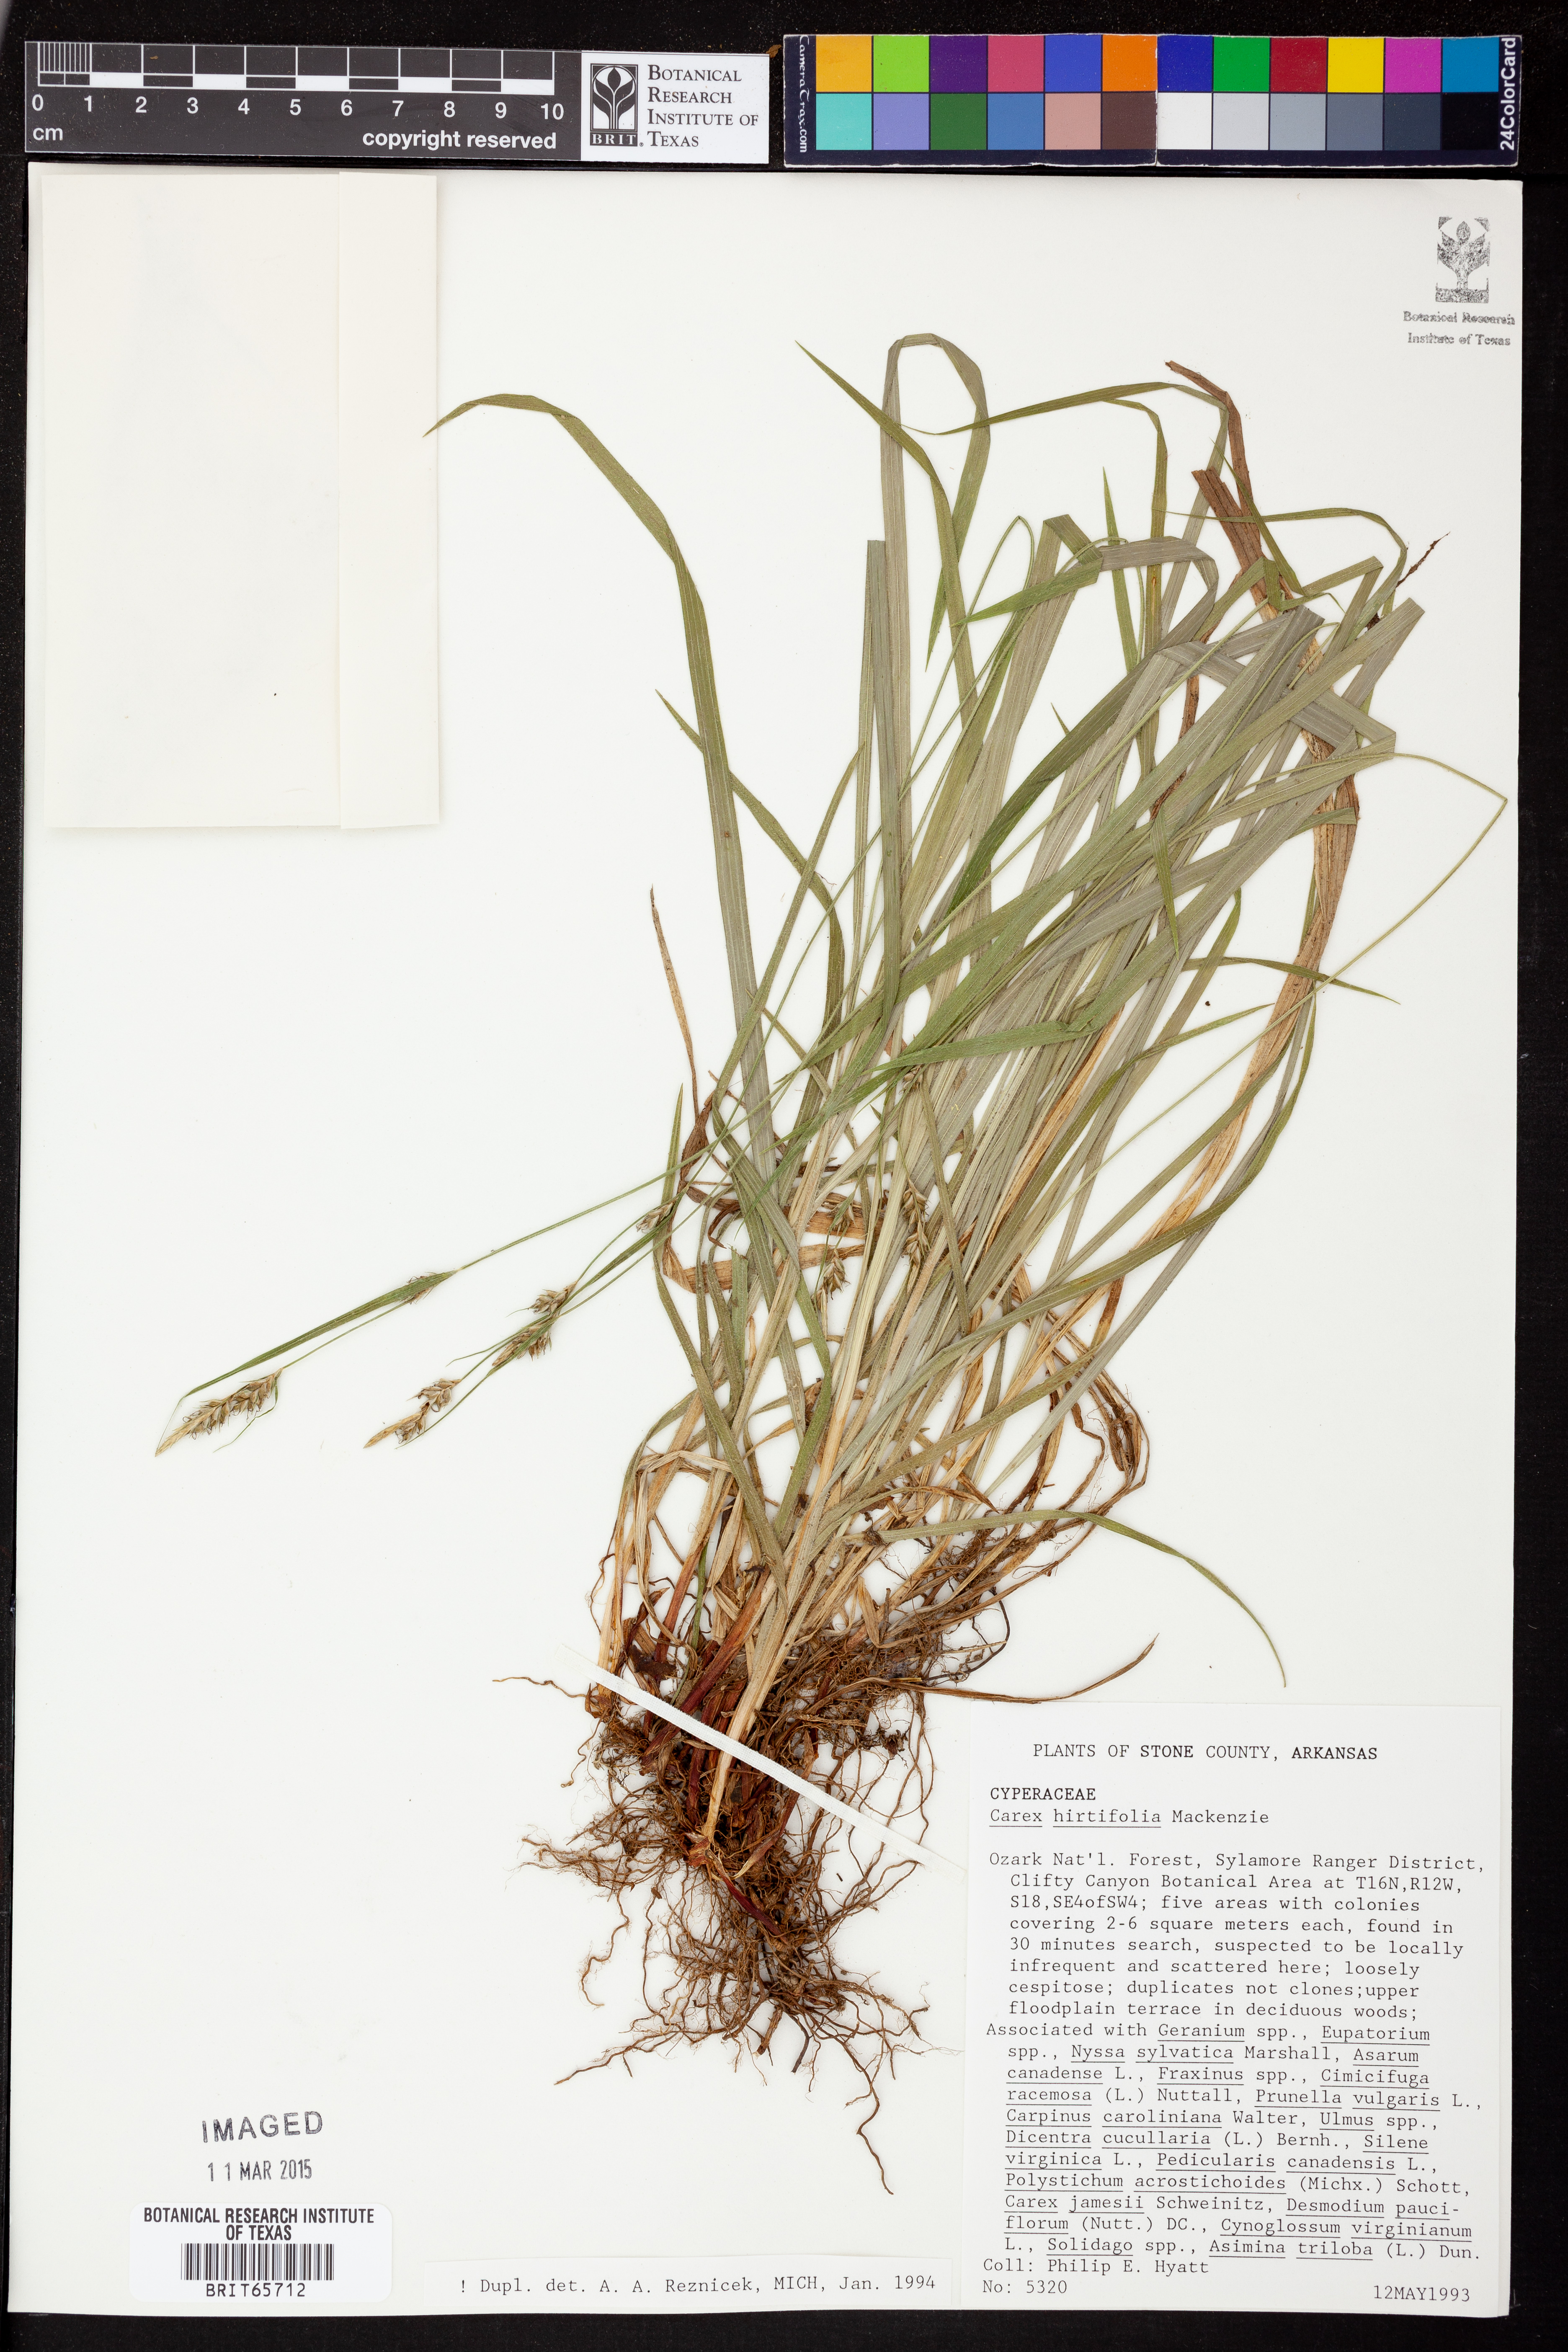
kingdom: Plantae
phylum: Tracheophyta
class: Liliopsida
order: Poales
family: Cyperaceae
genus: Carex
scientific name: Carex hirtifolia
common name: Hairy sedge
